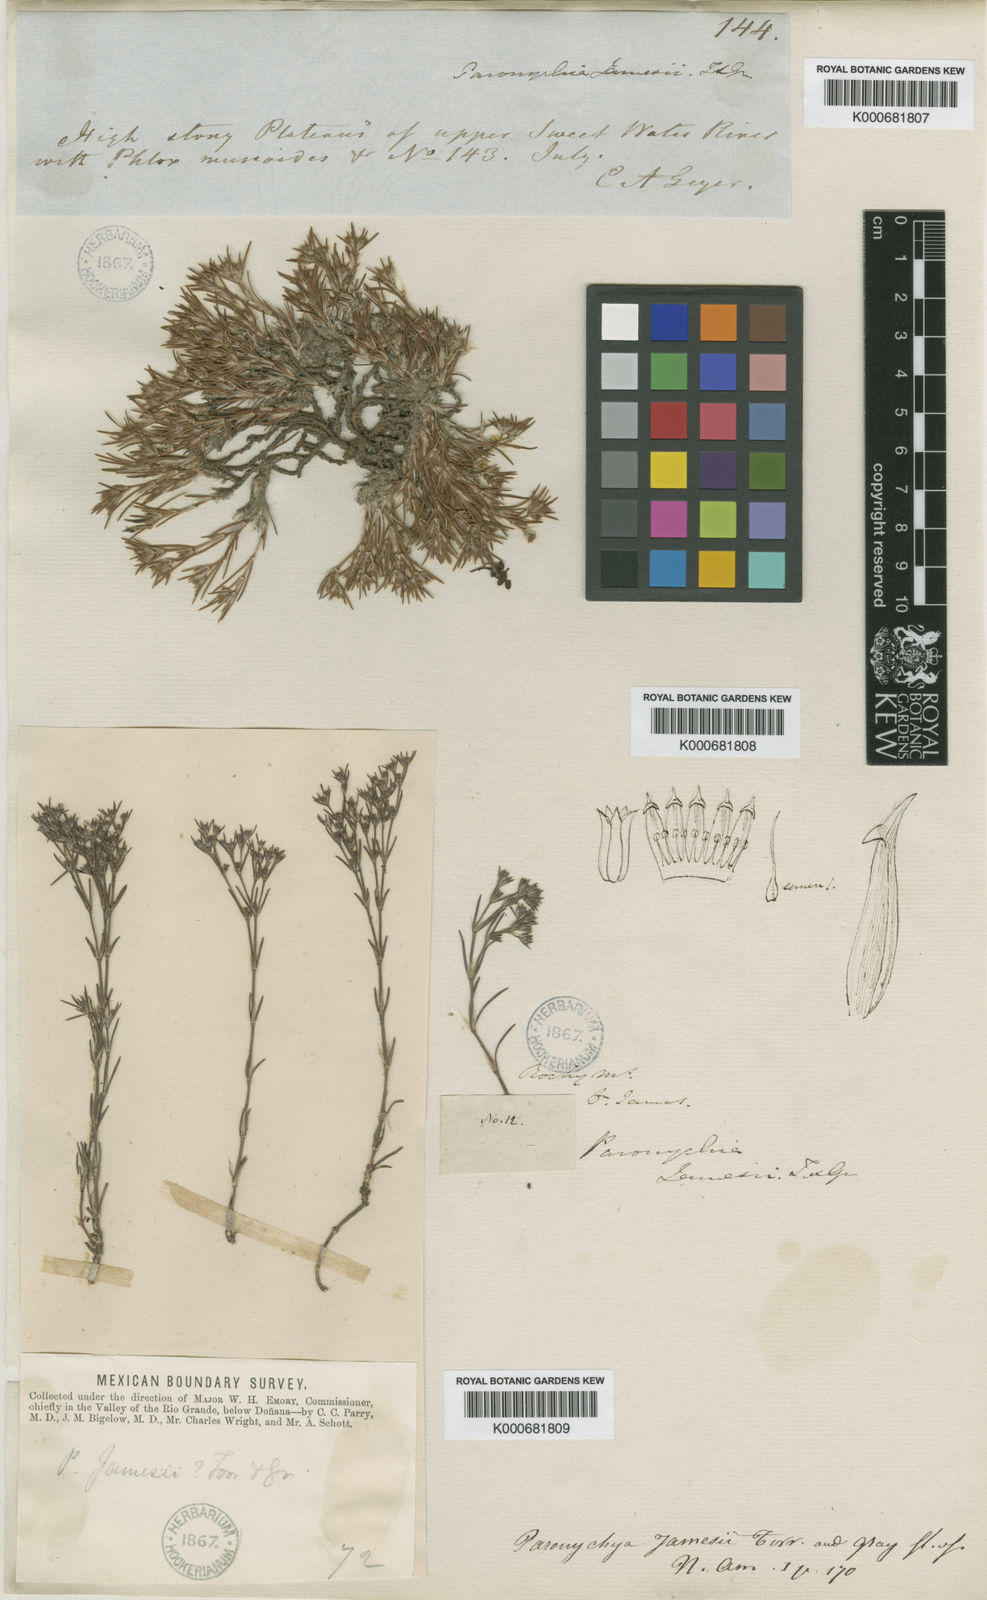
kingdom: Plantae
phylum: Tracheophyta
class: Magnoliopsida
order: Caryophyllales
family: Caryophyllaceae
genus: Paronychia
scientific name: Paronychia jamesii
